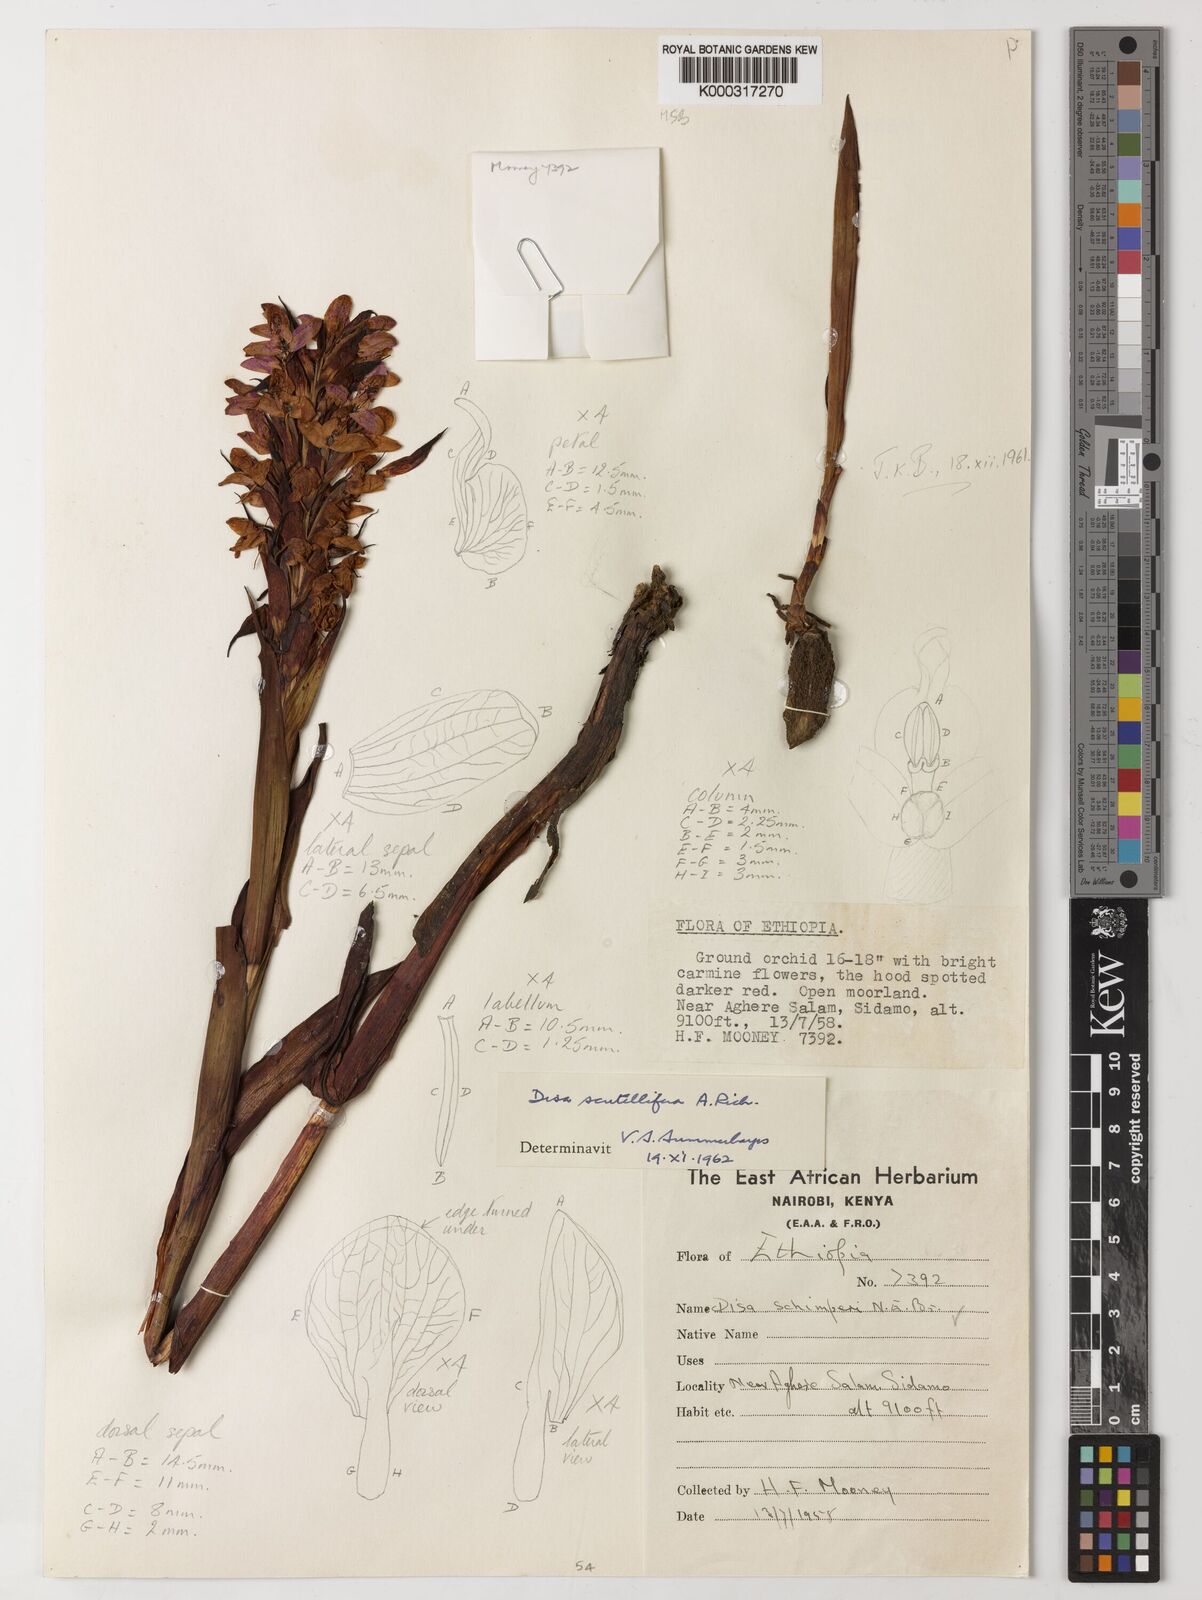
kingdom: Plantae
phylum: Tracheophyta
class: Liliopsida
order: Asparagales
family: Orchidaceae
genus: Disa
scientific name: Disa scutellifera
